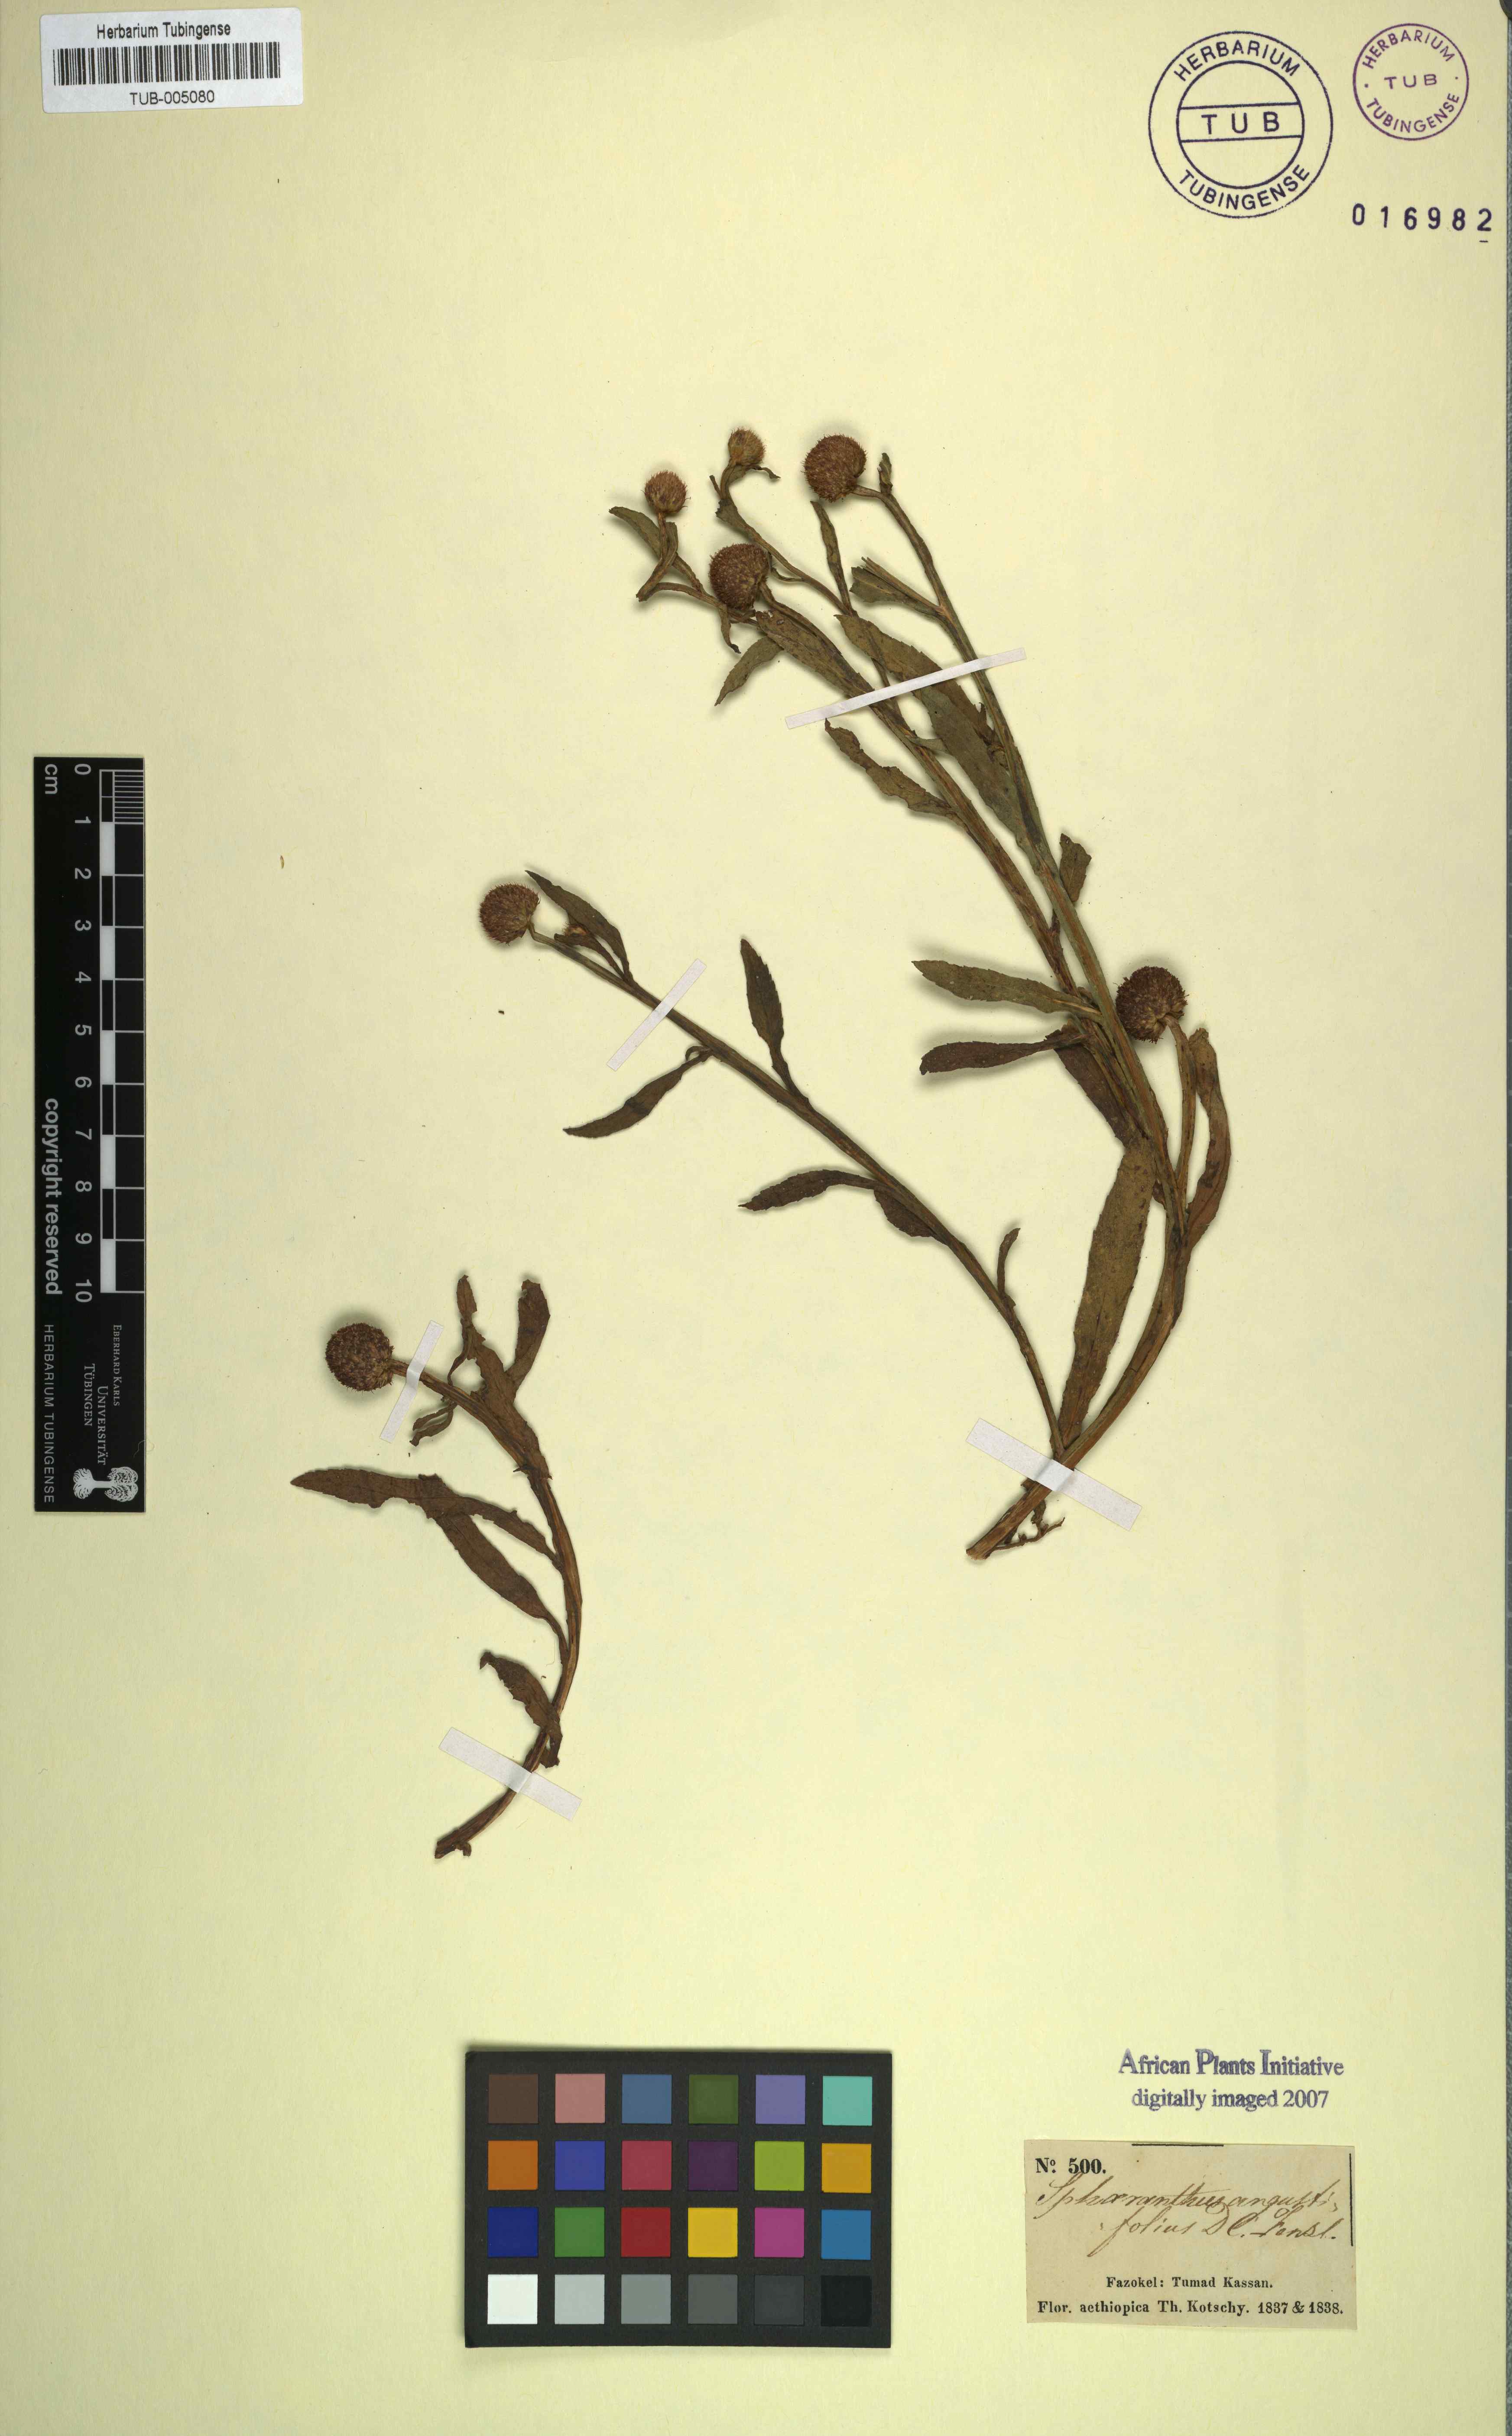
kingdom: Plantae
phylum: Tracheophyta
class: Magnoliopsida
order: Asterales
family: Asteraceae
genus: Sphaeranthus
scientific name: Sphaeranthus angustifolius
